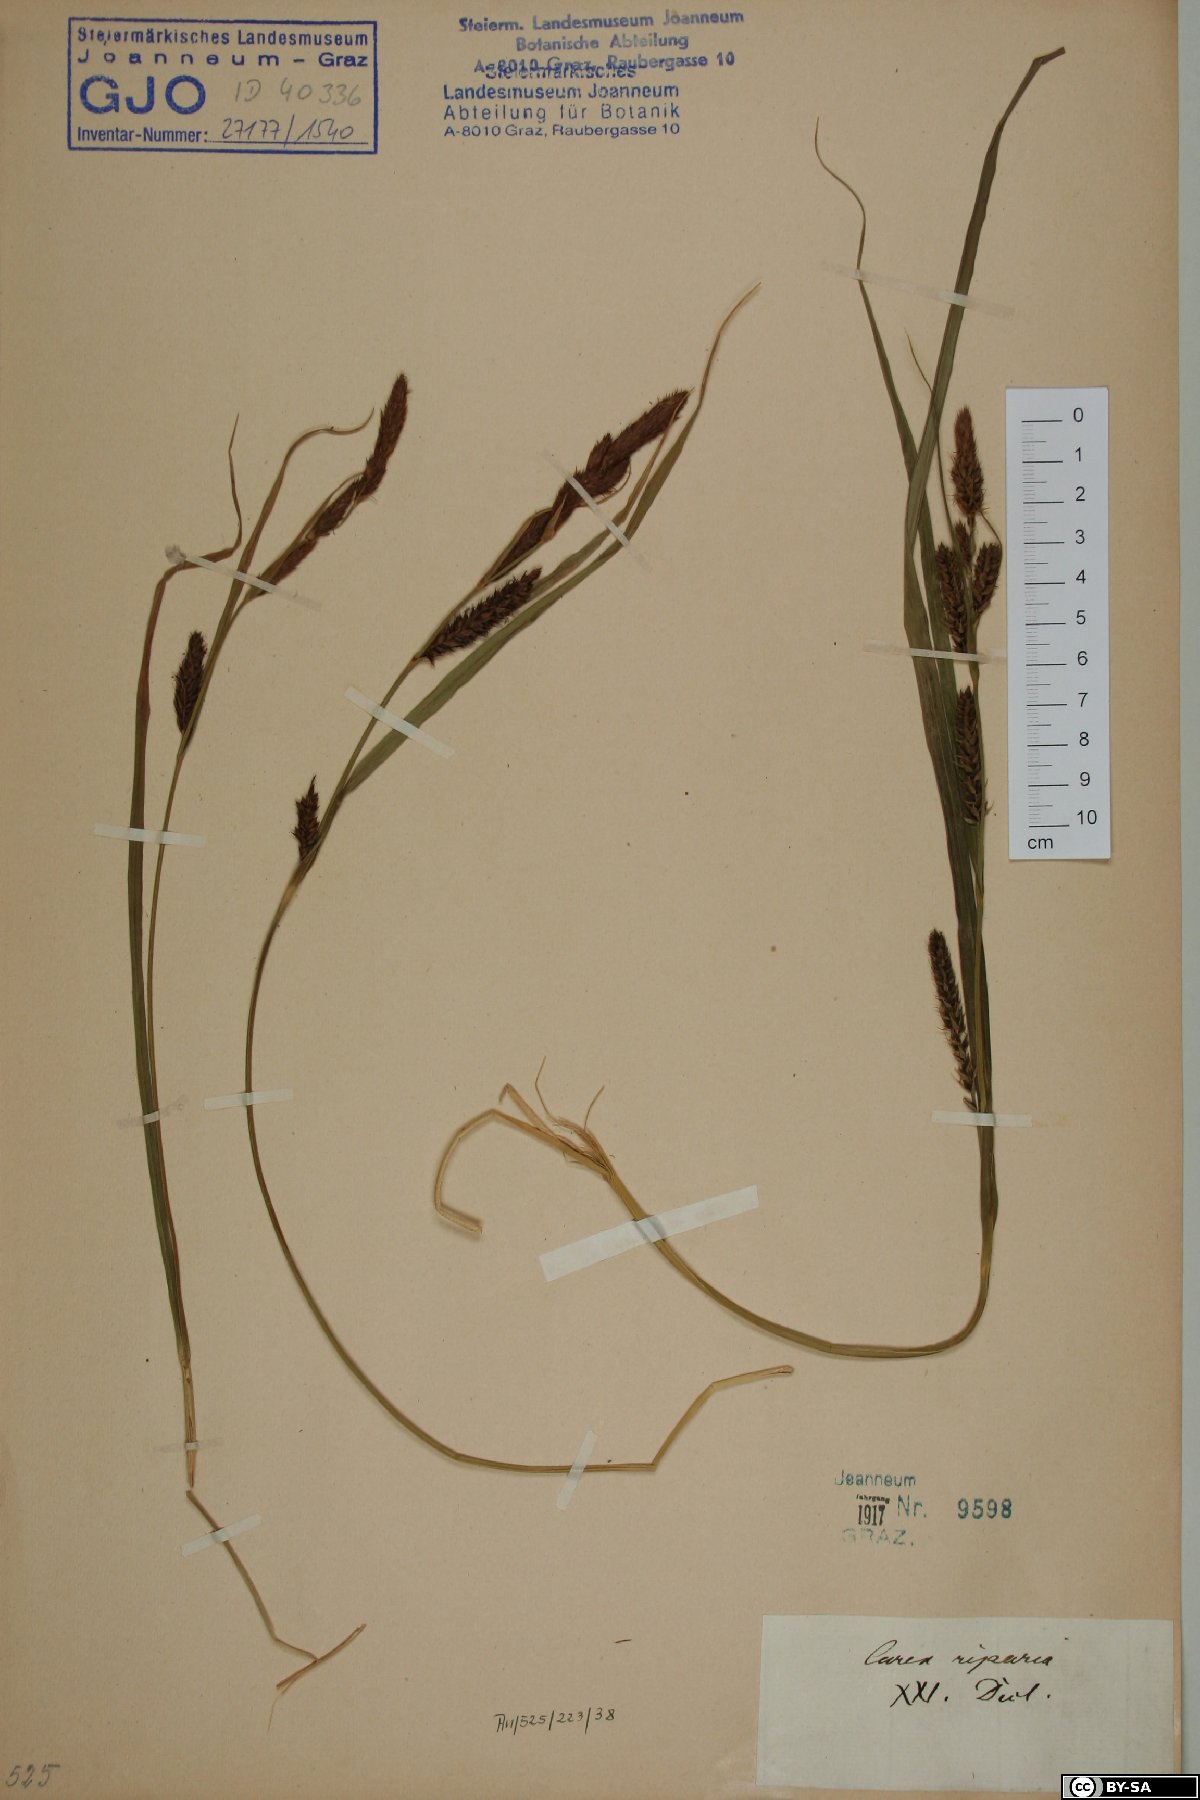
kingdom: Plantae
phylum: Tracheophyta
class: Liliopsida
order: Poales
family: Cyperaceae
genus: Carex
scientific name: Carex riparia
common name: Greater pond-sedge
